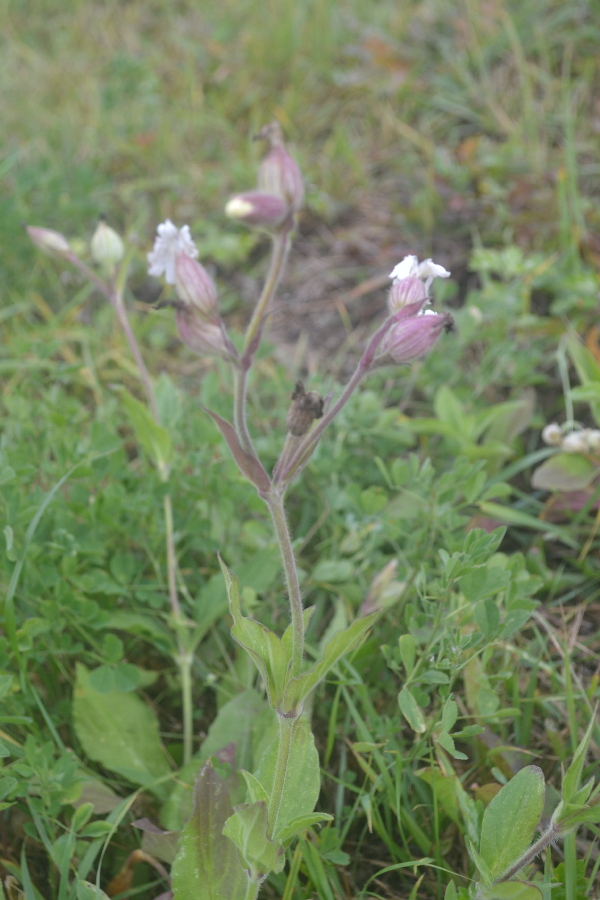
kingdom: Plantae
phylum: Tracheophyta
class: Magnoliopsida
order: Caryophyllales
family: Caryophyllaceae
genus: Silene
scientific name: Silene latifolia
